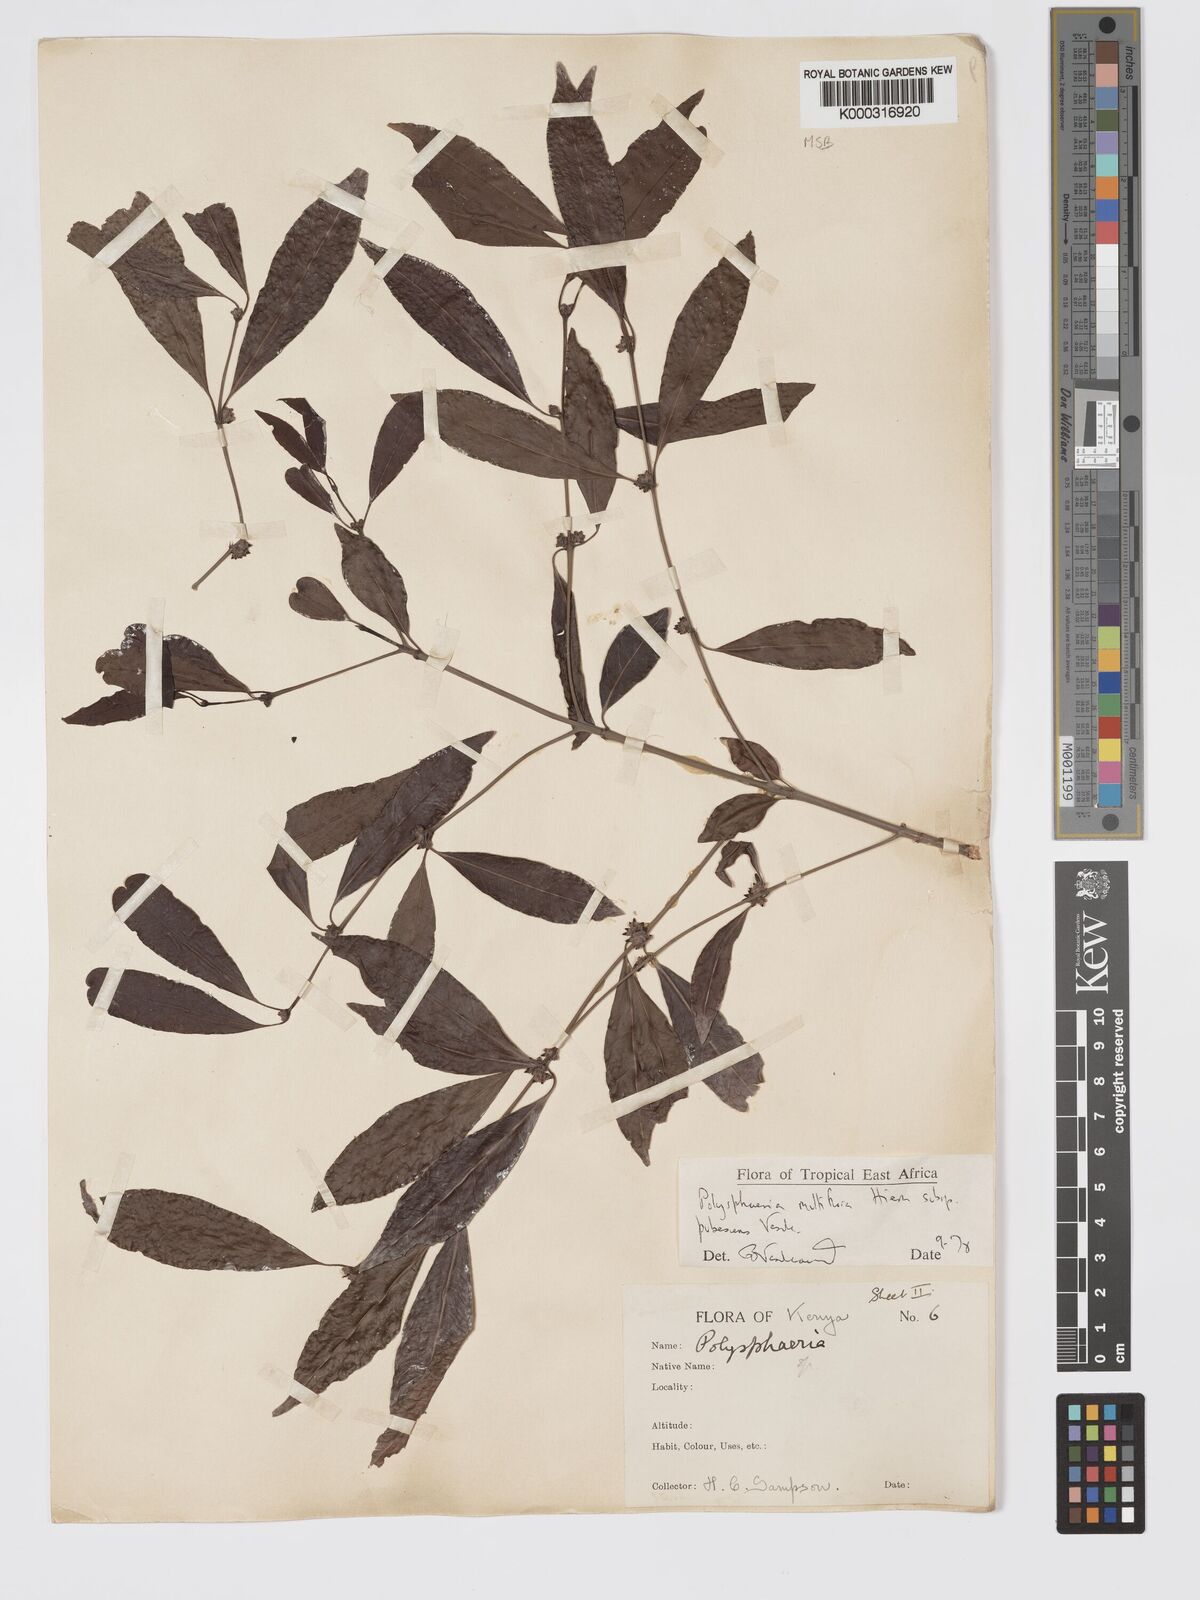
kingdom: Plantae
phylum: Tracheophyta
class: Magnoliopsida
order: Gentianales
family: Rubiaceae
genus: Polysphaeria
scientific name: Polysphaeria multiflora
